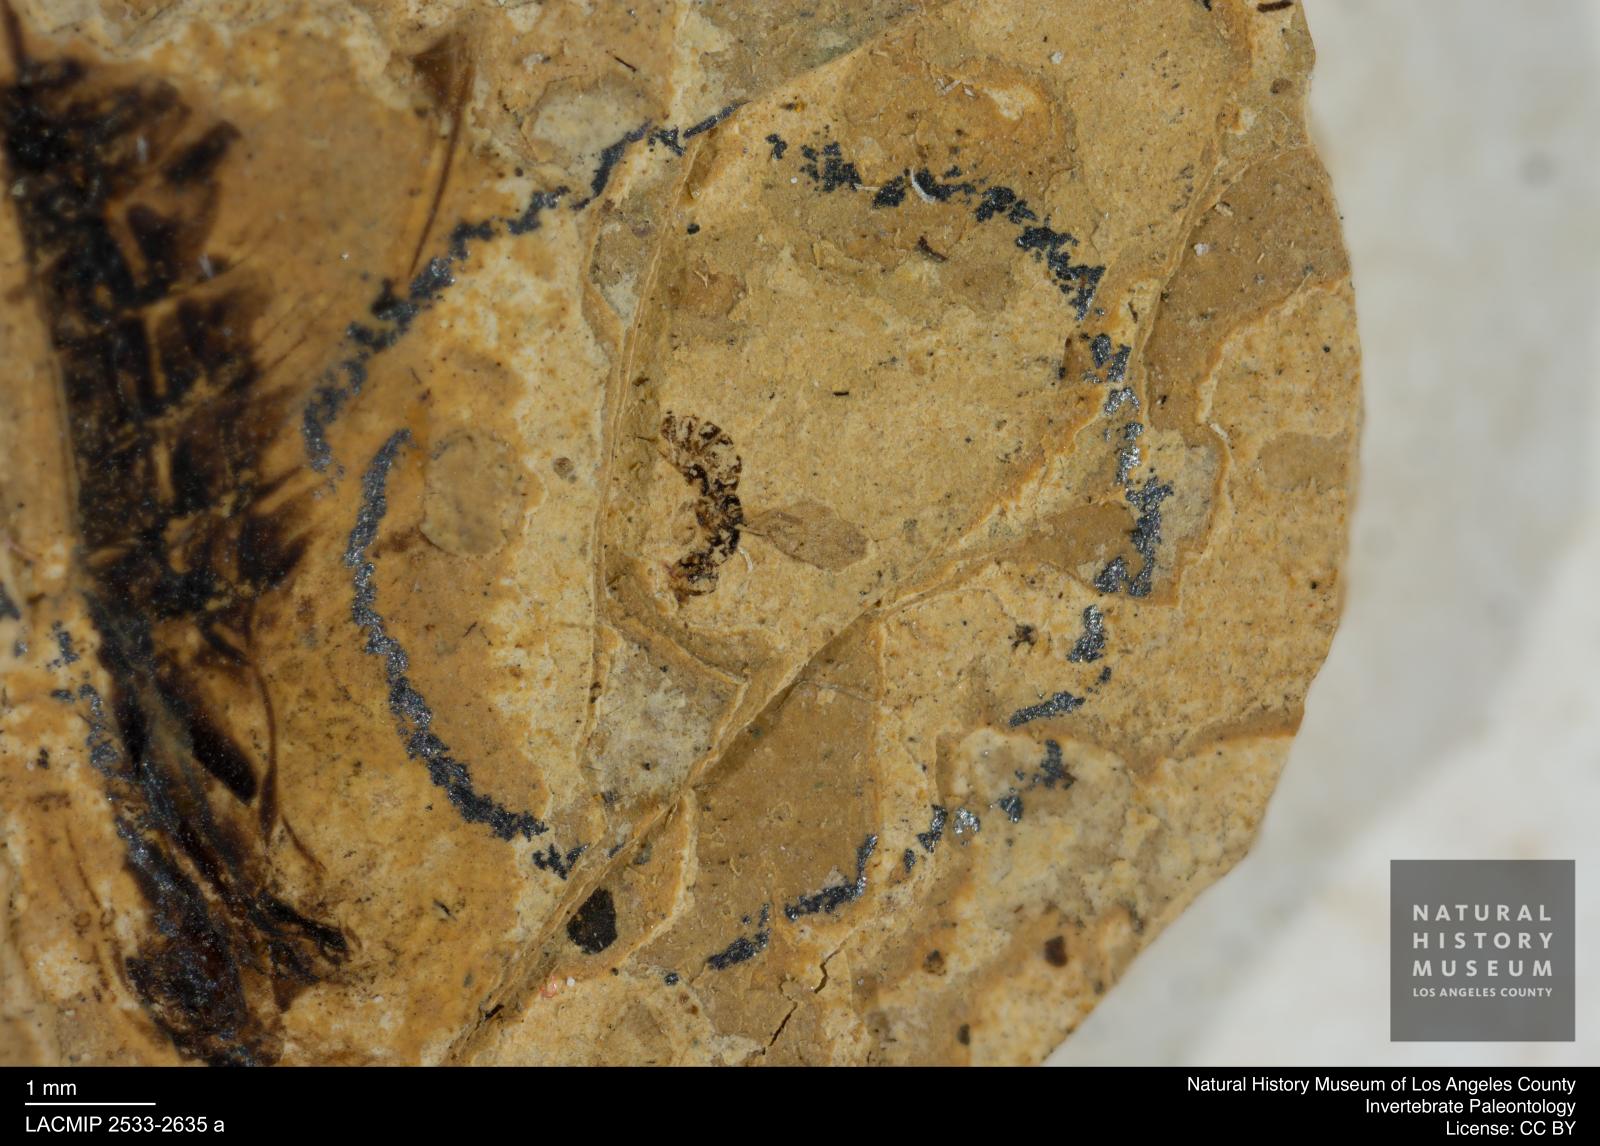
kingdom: Animalia
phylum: Arthropoda
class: Insecta
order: Hemiptera
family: Notonectidae
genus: Notonecta
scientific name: Notonecta
